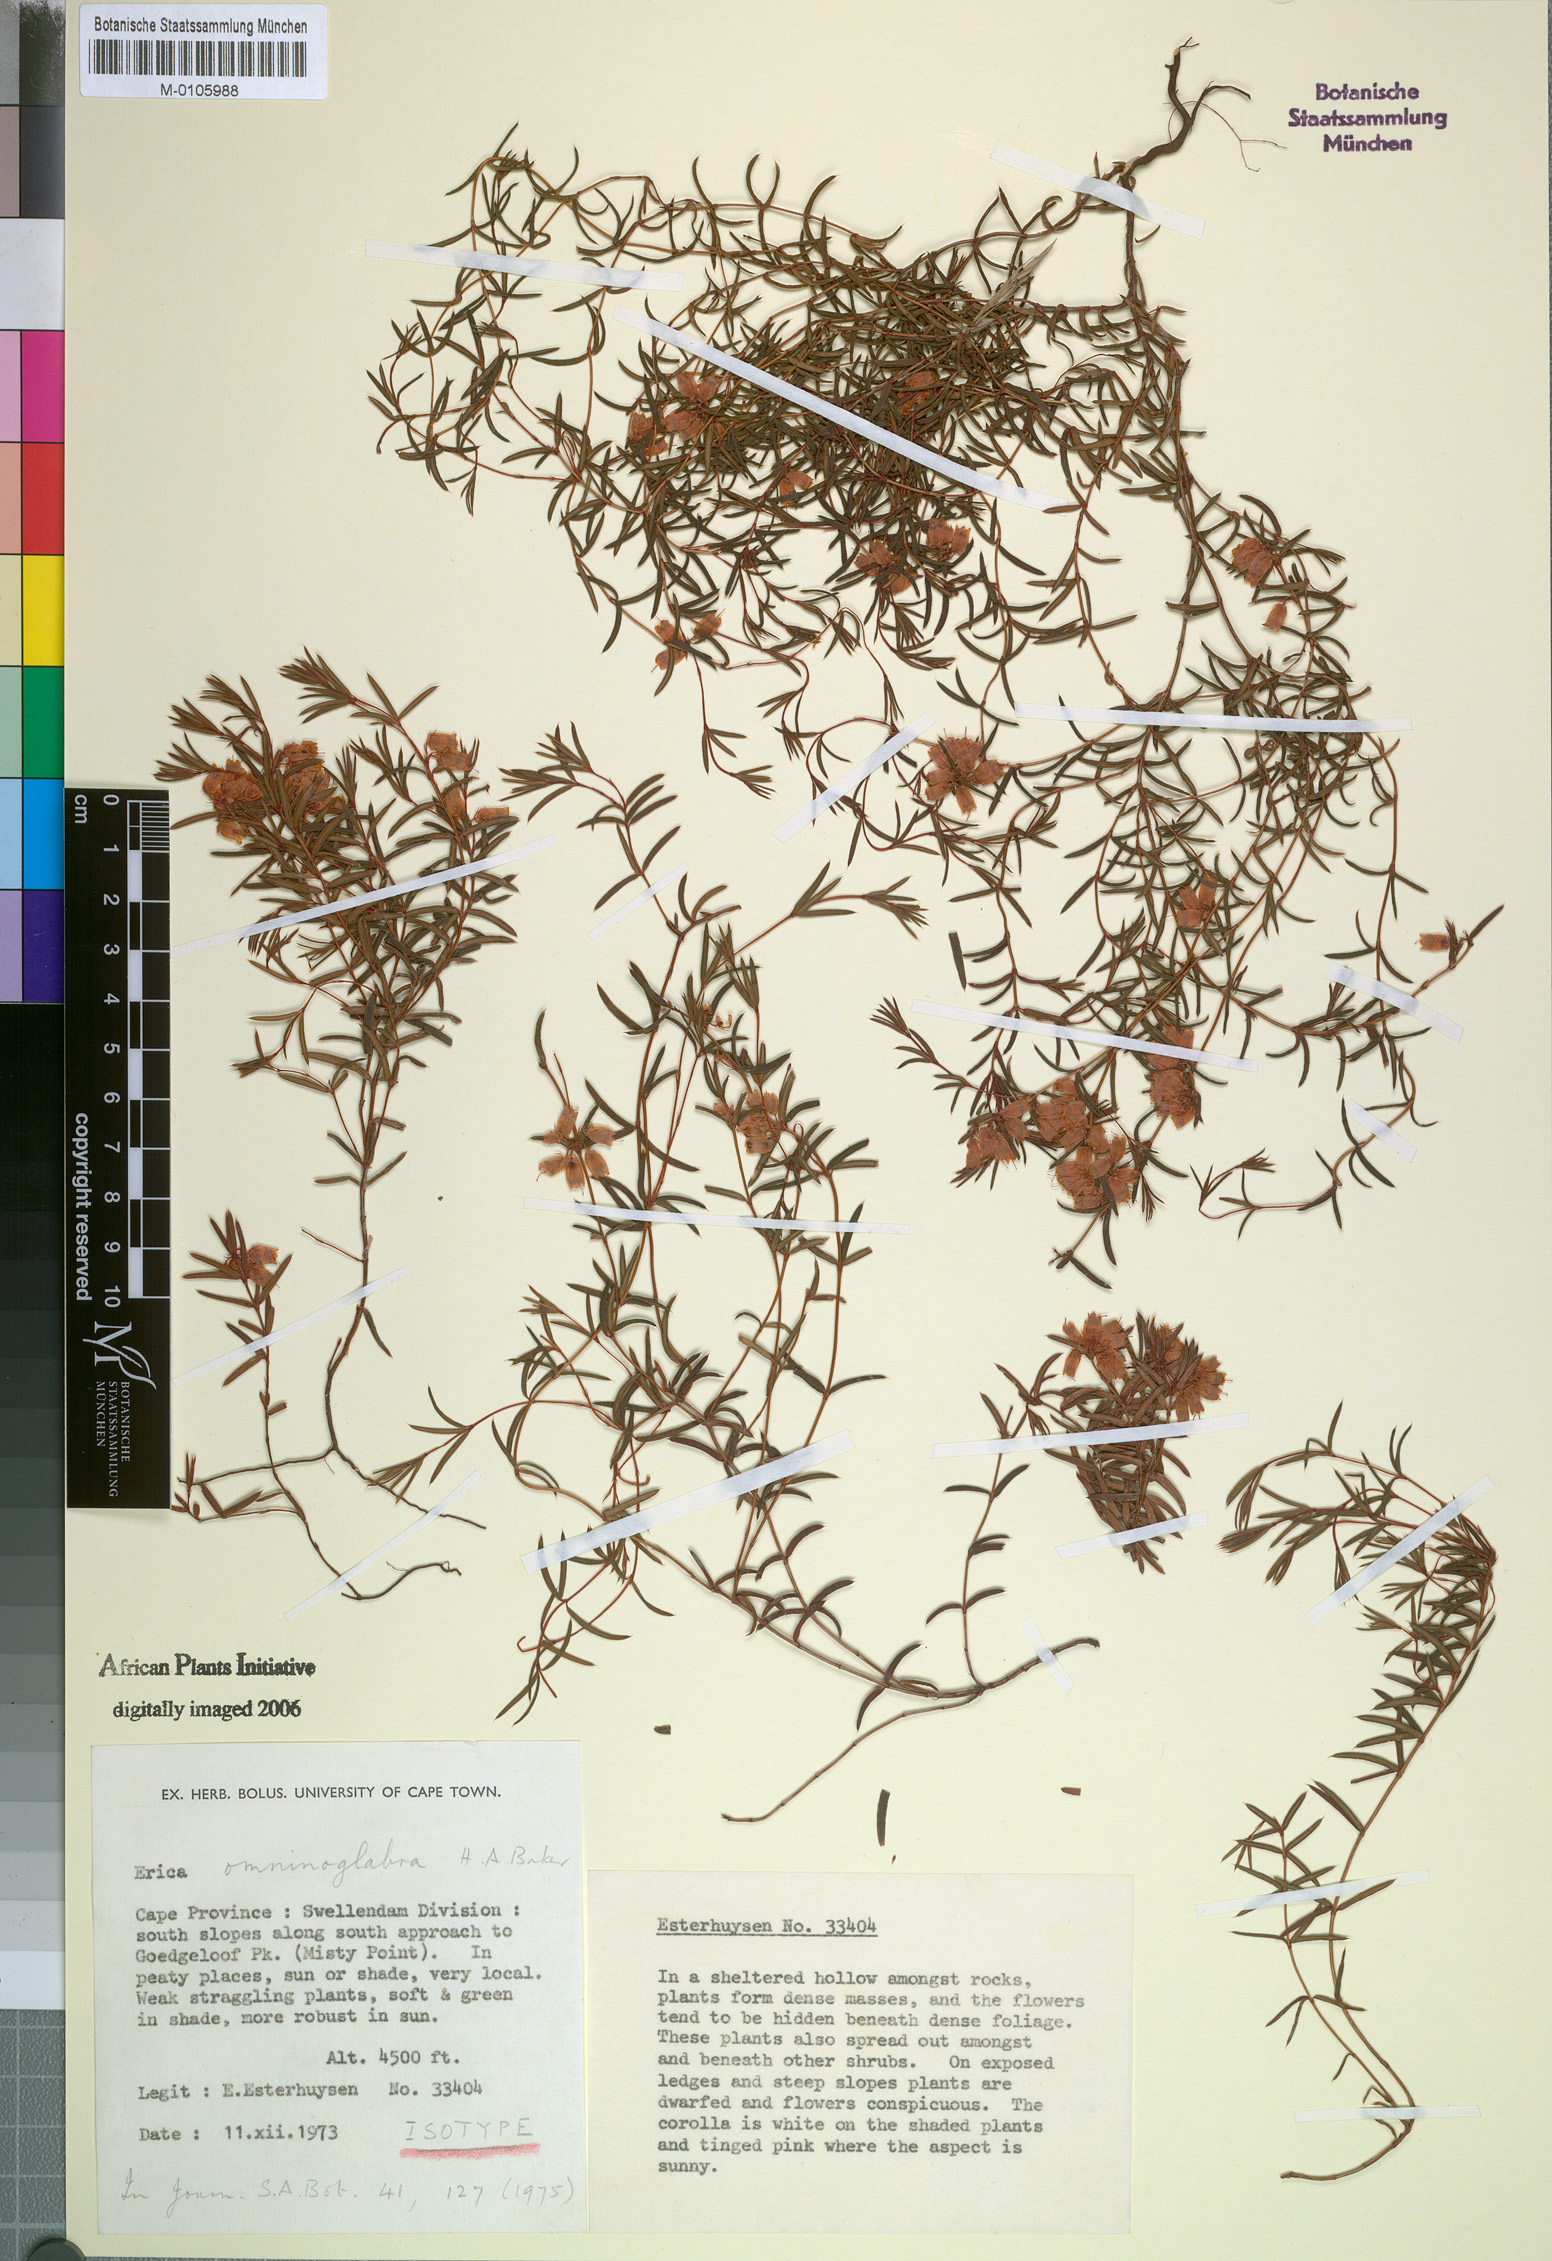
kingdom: Plantae
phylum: Tracheophyta
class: Magnoliopsida
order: Ericales
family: Ericaceae
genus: Erica
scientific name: Erica omninoglabra
